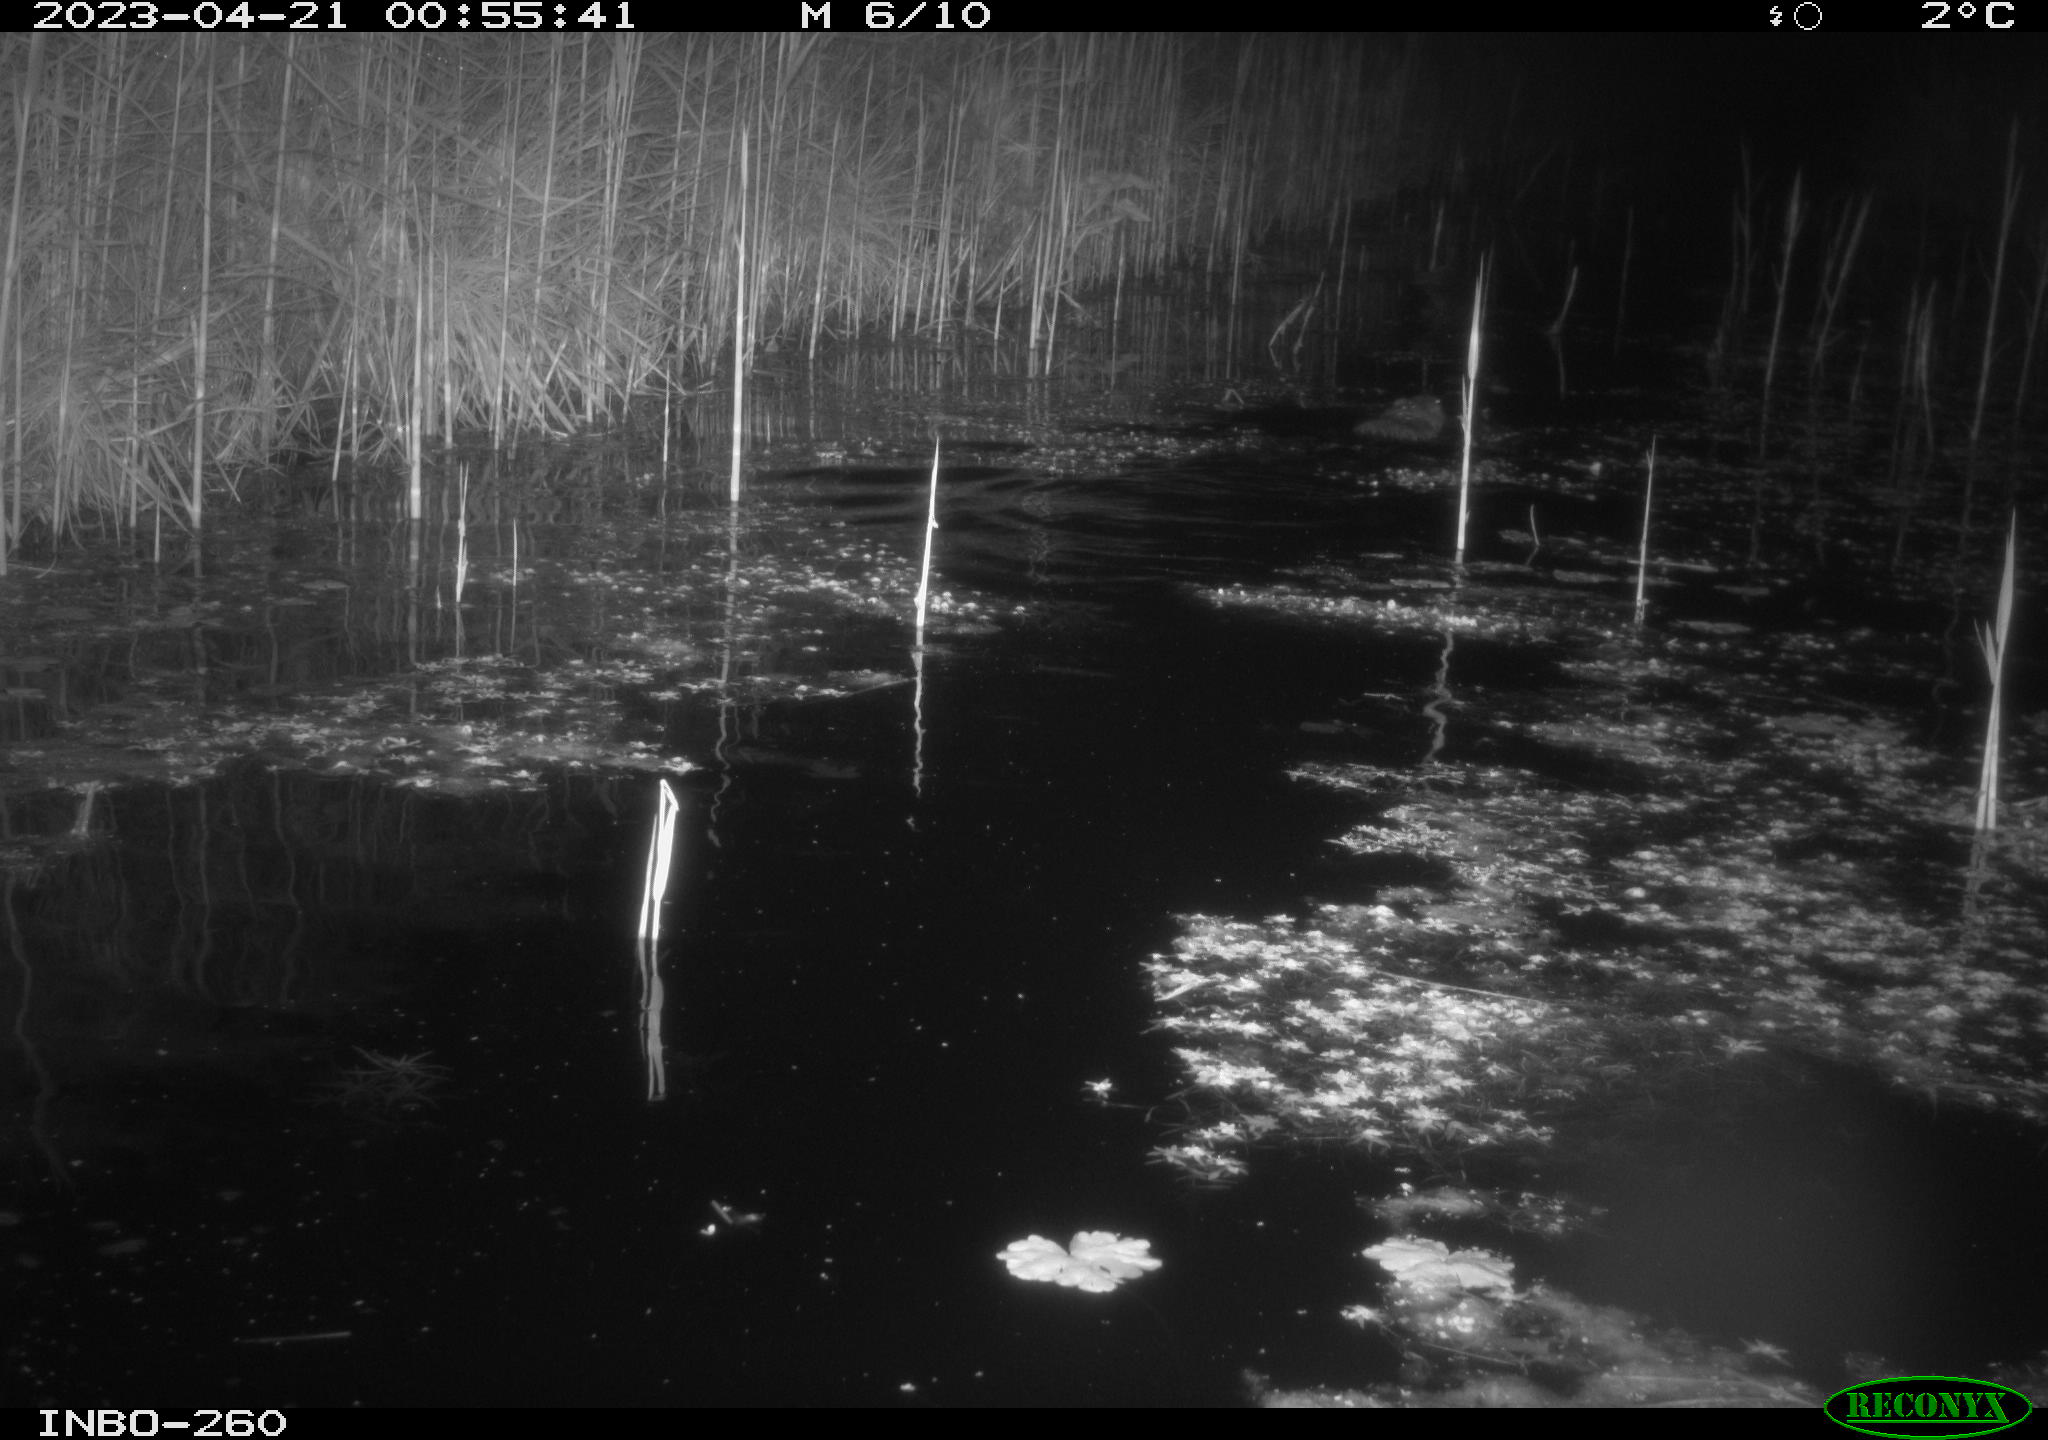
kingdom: Animalia
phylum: Chordata
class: Mammalia
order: Rodentia
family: Cricetidae
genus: Ondatra
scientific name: Ondatra zibethicus
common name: Muskrat
